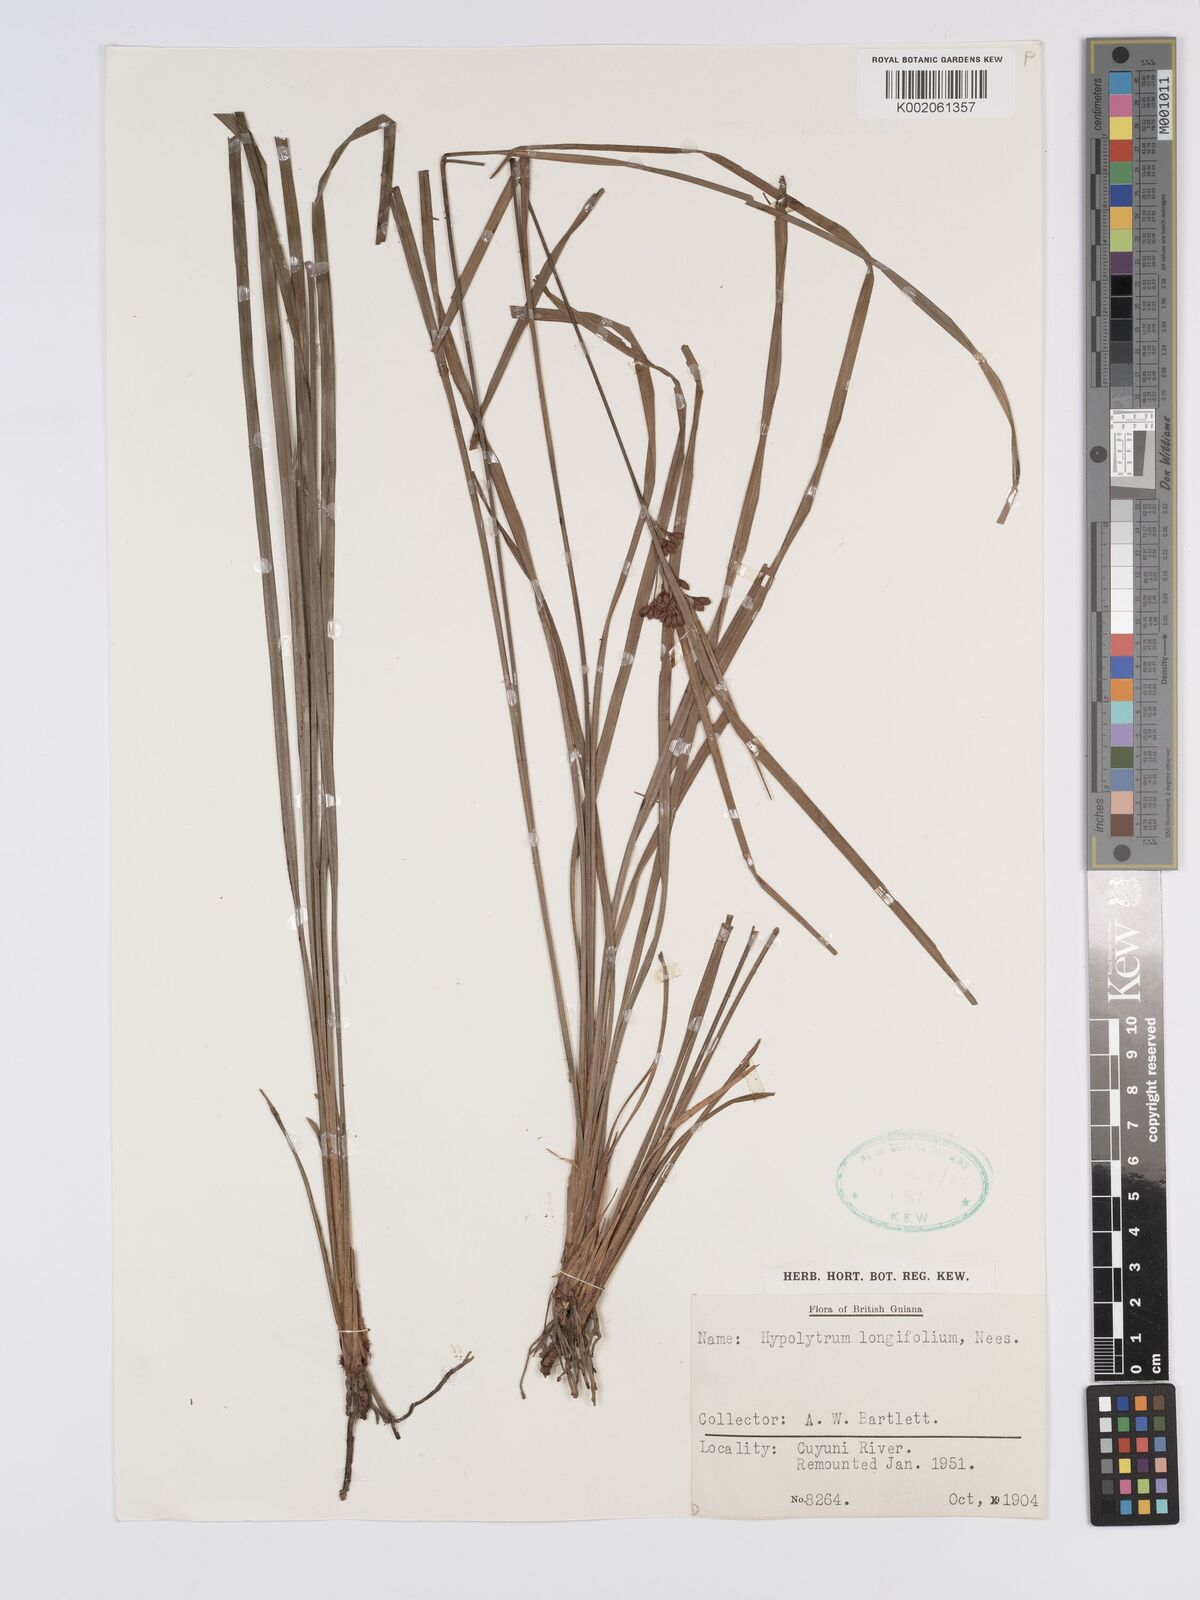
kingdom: Plantae
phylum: Tracheophyta
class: Liliopsida
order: Poales
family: Cyperaceae
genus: Hypolytrum
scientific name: Hypolytrum longifolium
